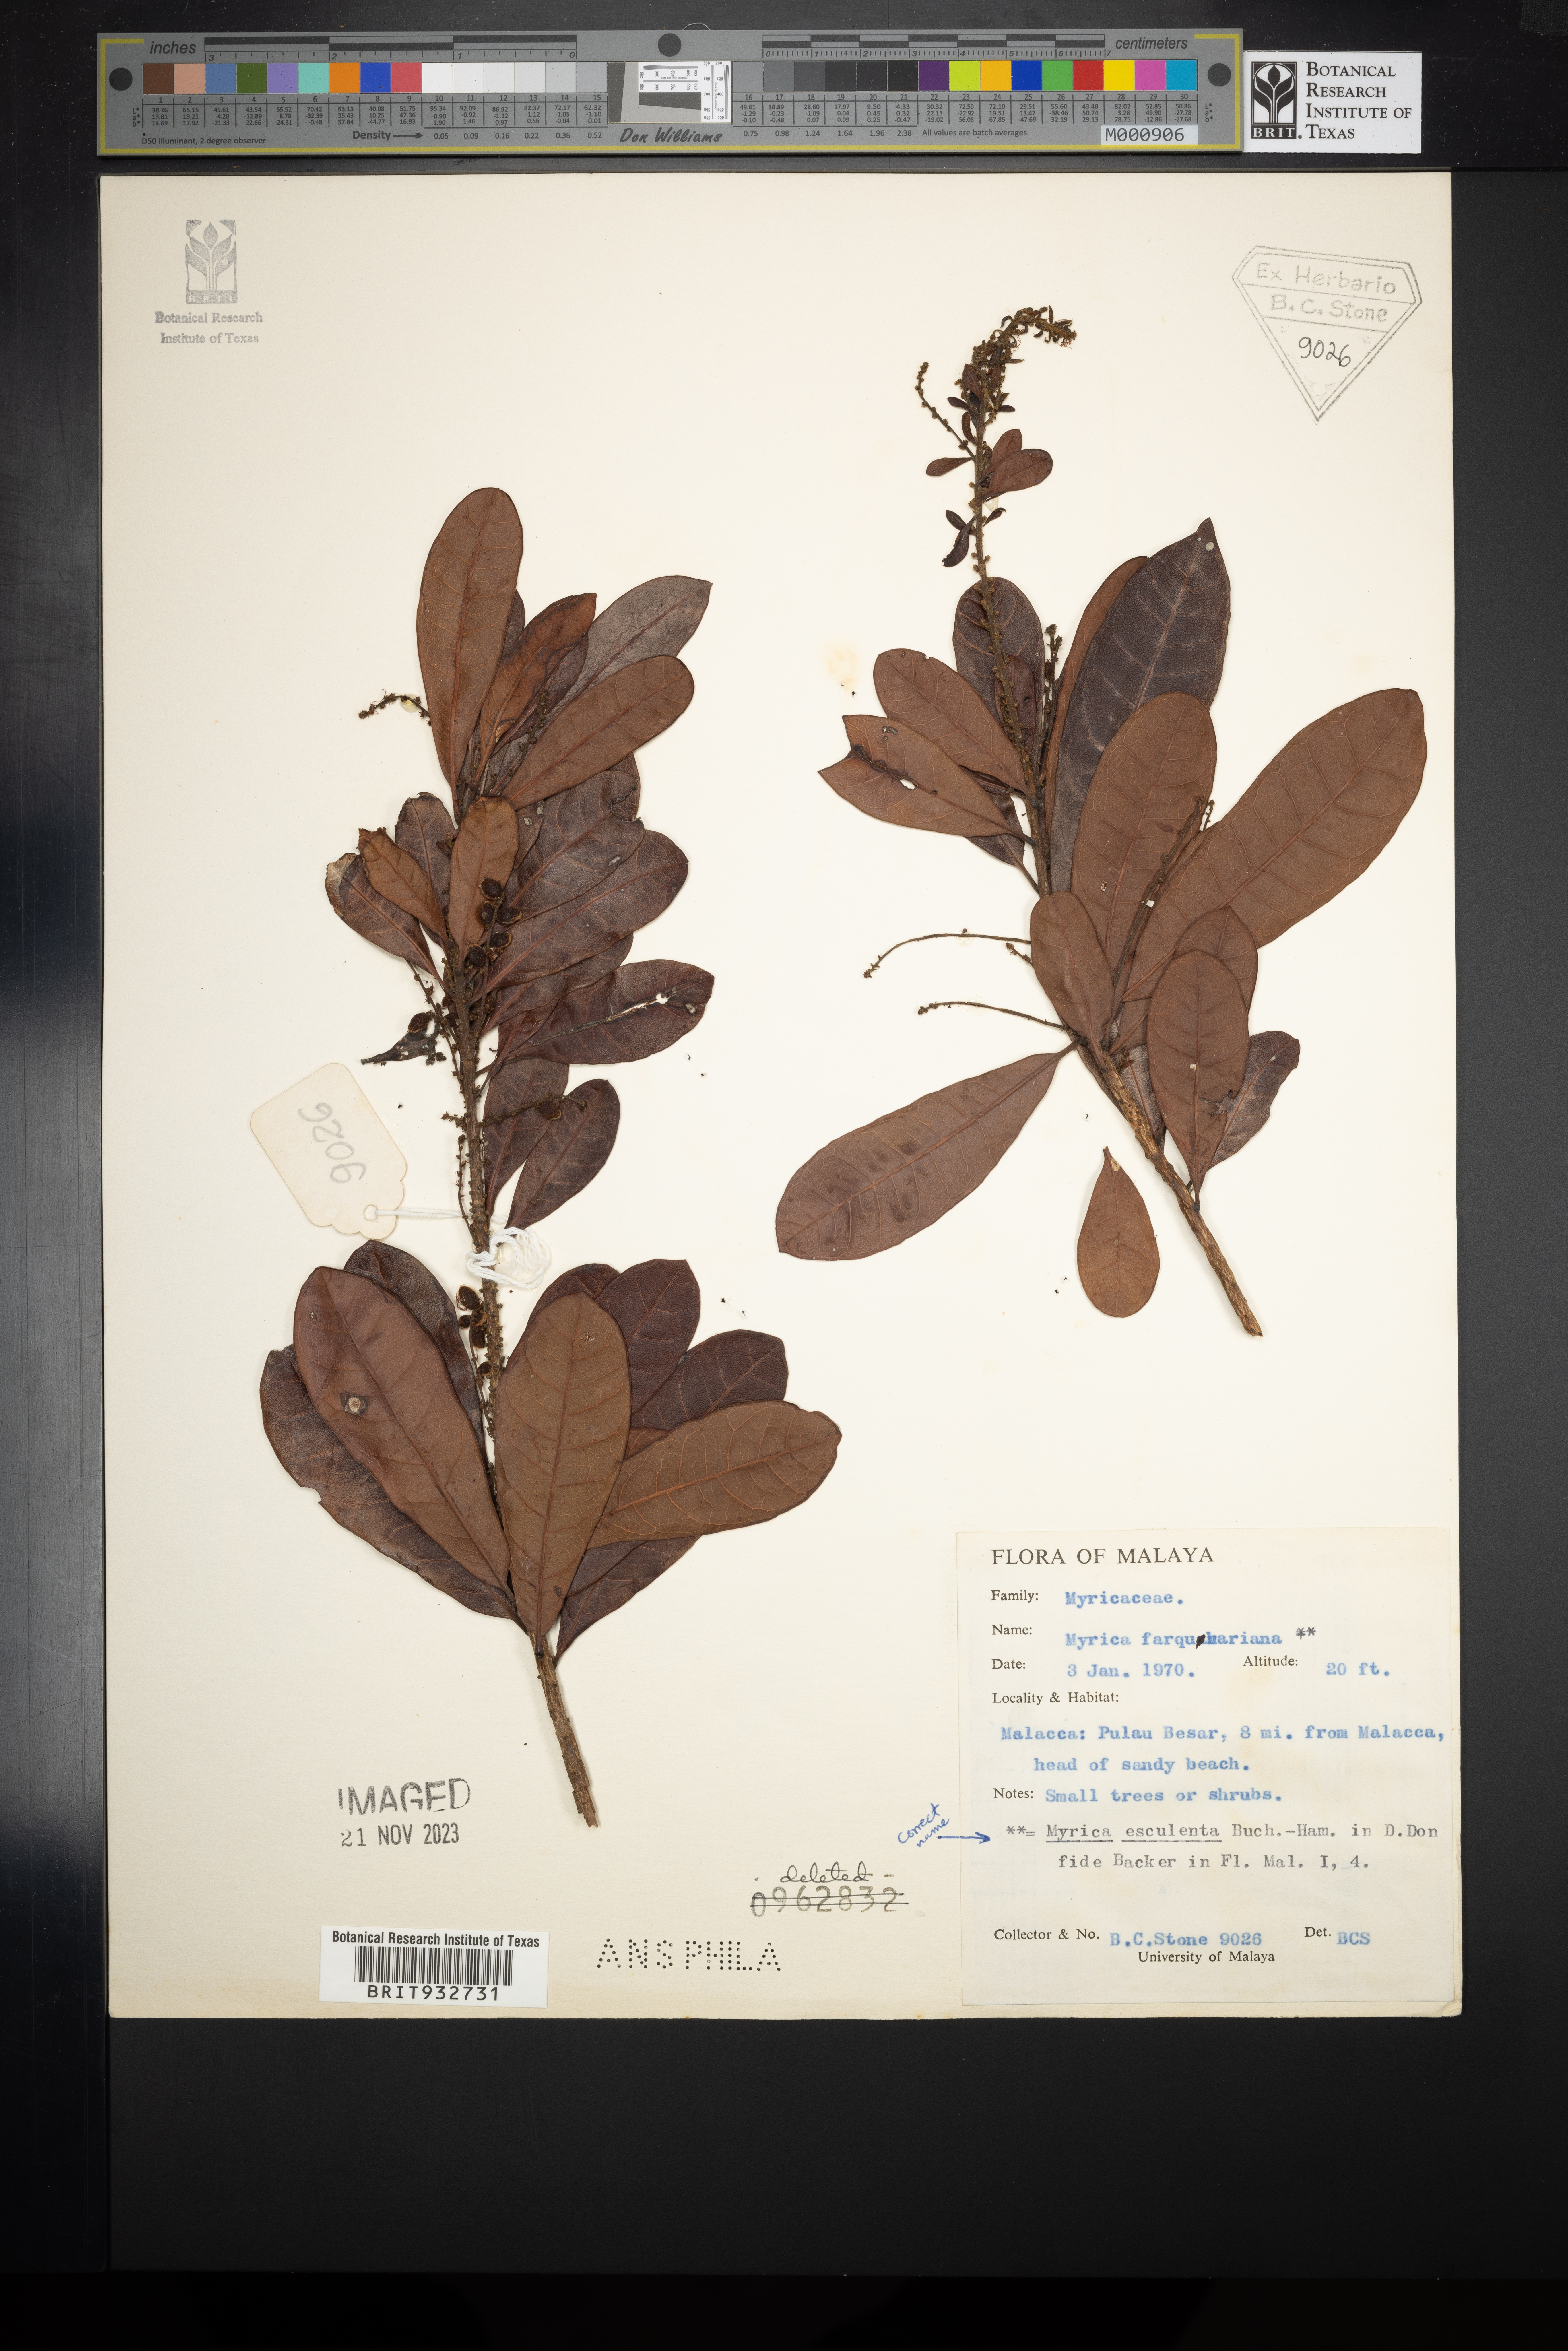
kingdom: Plantae
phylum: Tracheophyta
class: Magnoliopsida
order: Cucurbitales
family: Cucurbitaceae
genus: Momordica
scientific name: Momordica
